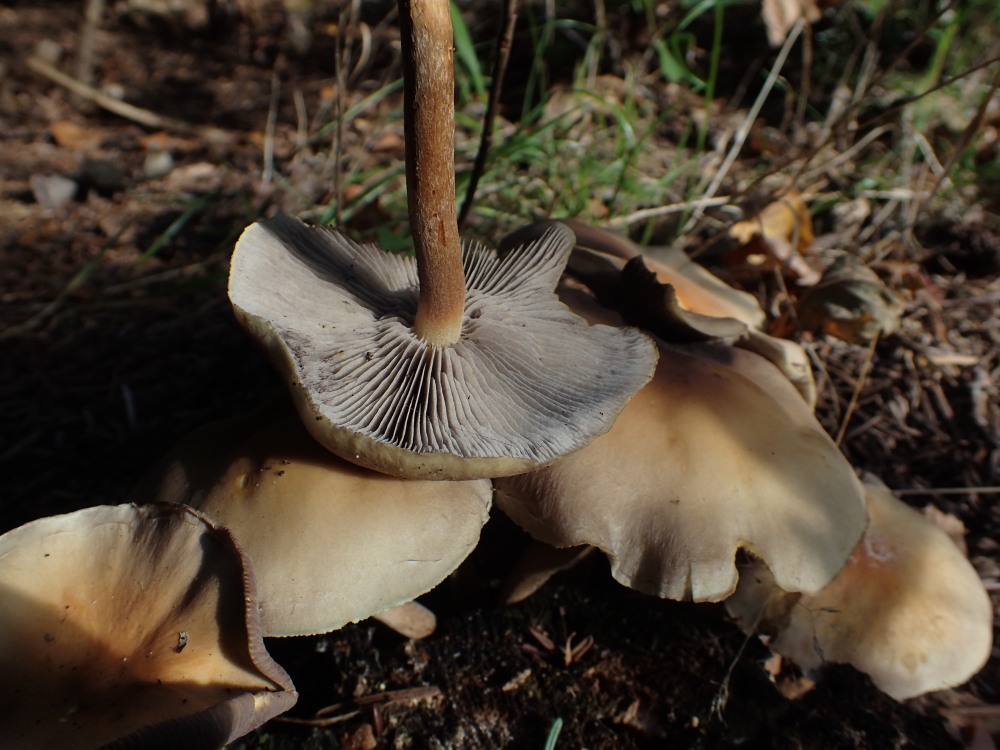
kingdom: Fungi
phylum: Basidiomycota
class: Agaricomycetes
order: Agaricales
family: Strophariaceae
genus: Hypholoma
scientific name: Hypholoma capnoides
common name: gran-svovlhat
